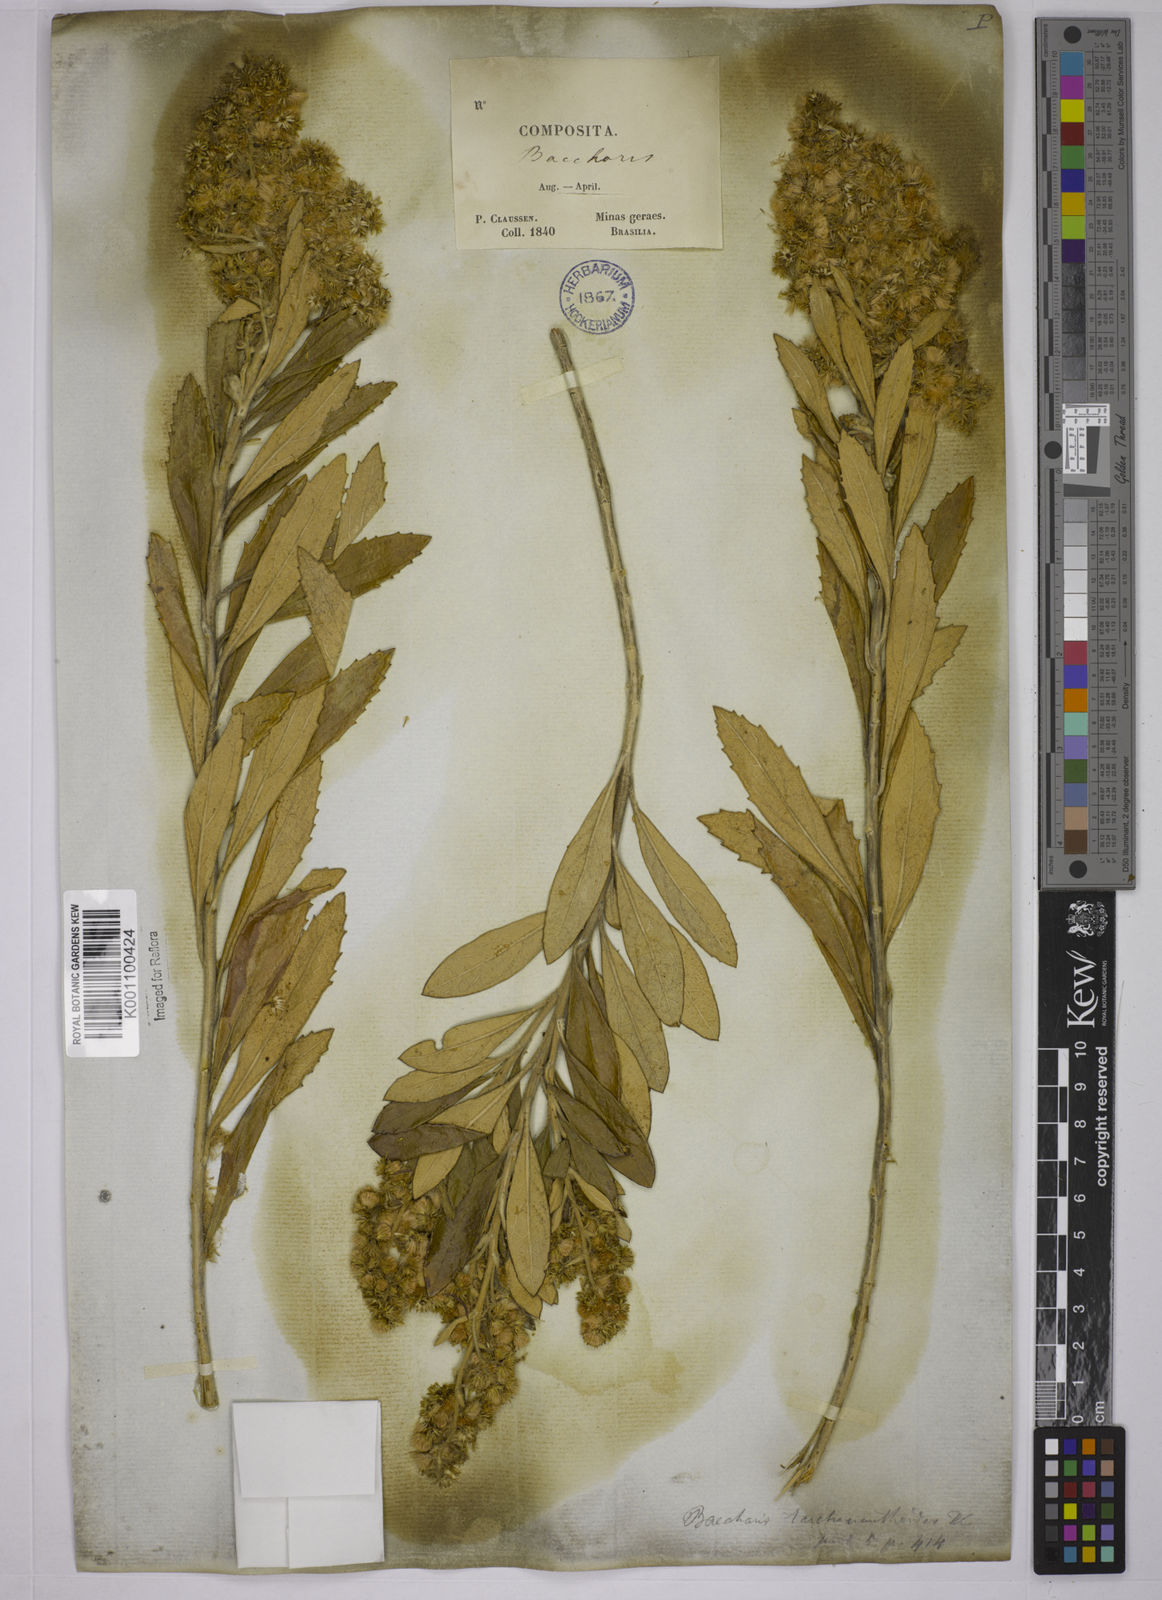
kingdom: Plantae
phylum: Tracheophyta
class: Magnoliopsida
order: Asterales
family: Asteraceae
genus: Baccharis
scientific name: Baccharis
